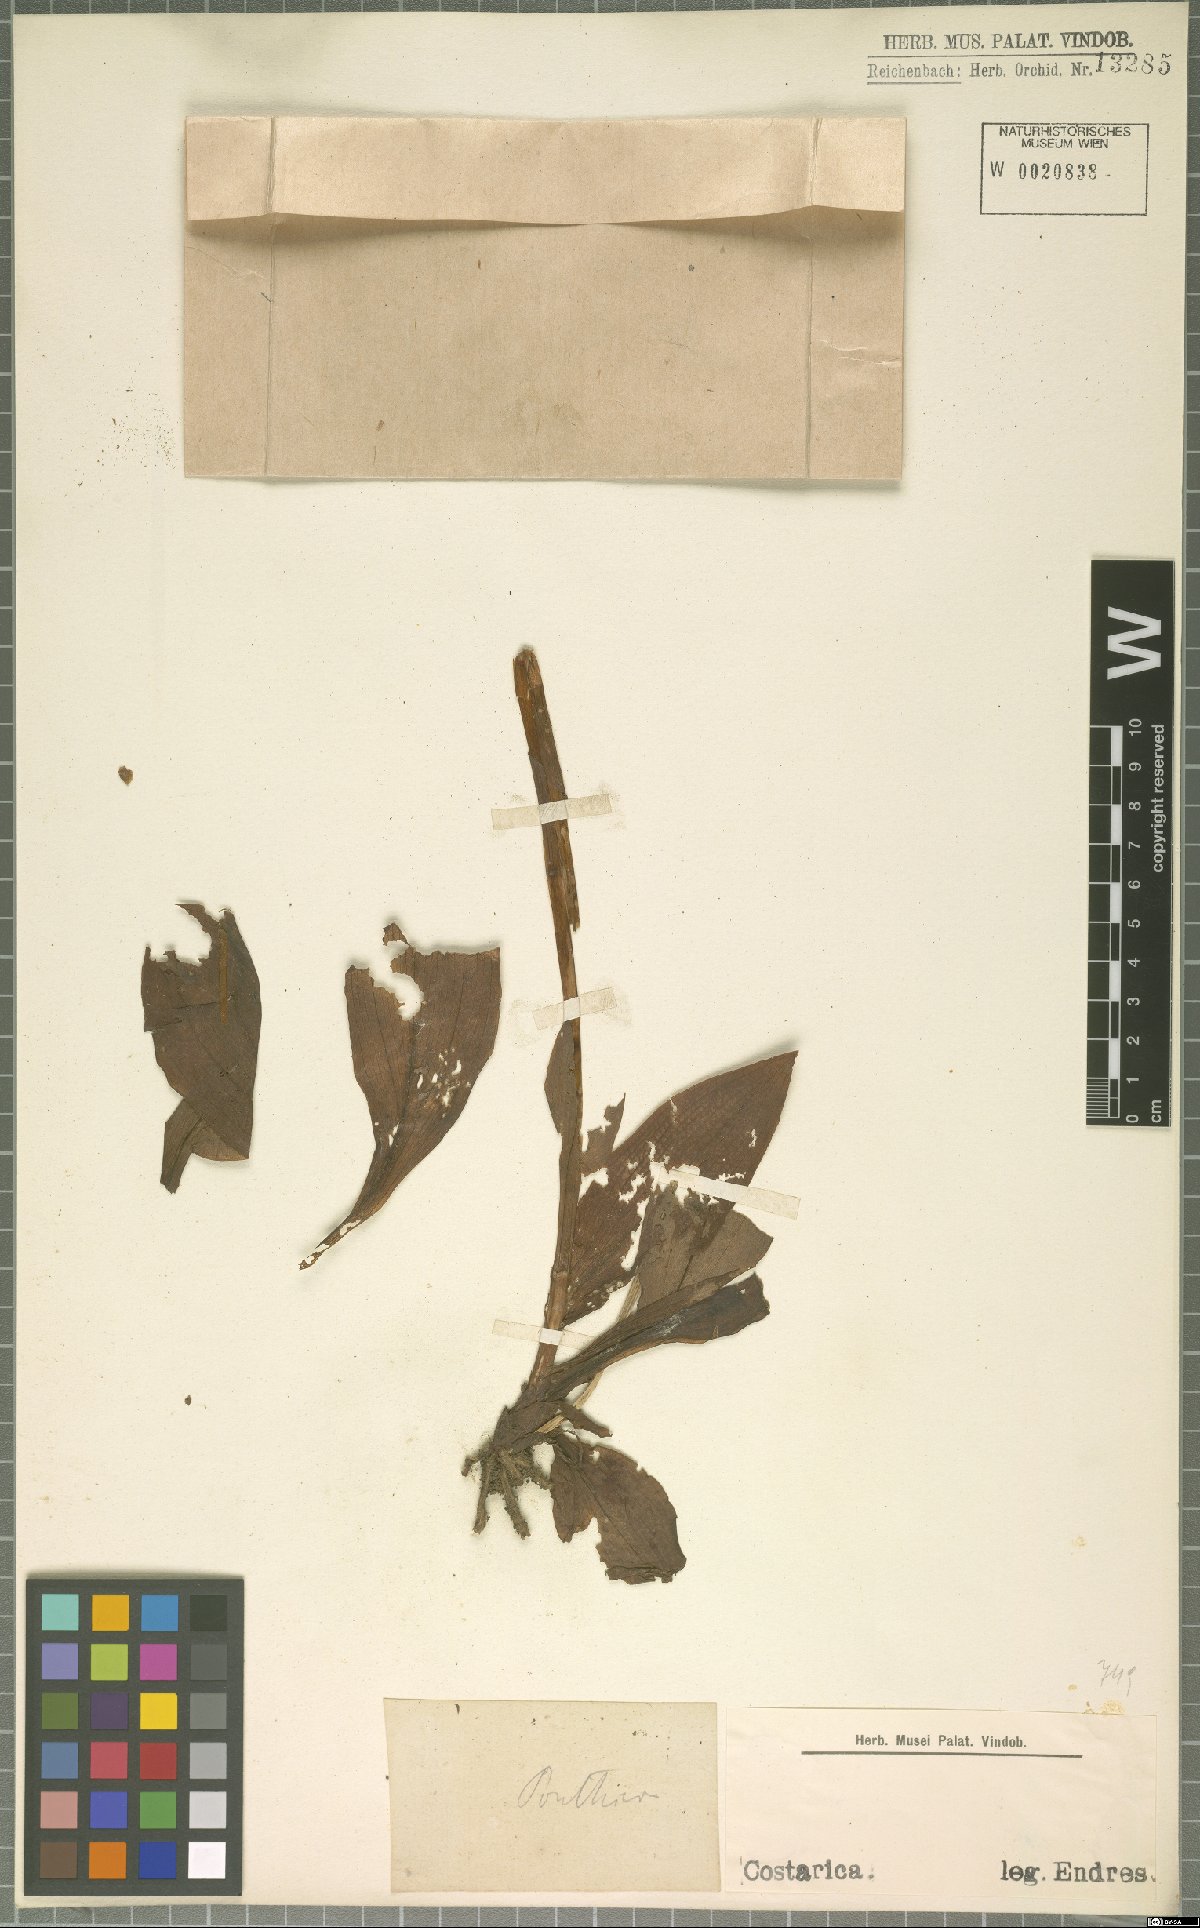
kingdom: Plantae
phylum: Tracheophyta
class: Liliopsida
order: Asparagales
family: Orchidaceae
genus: Ponthieva
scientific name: Ponthieva
